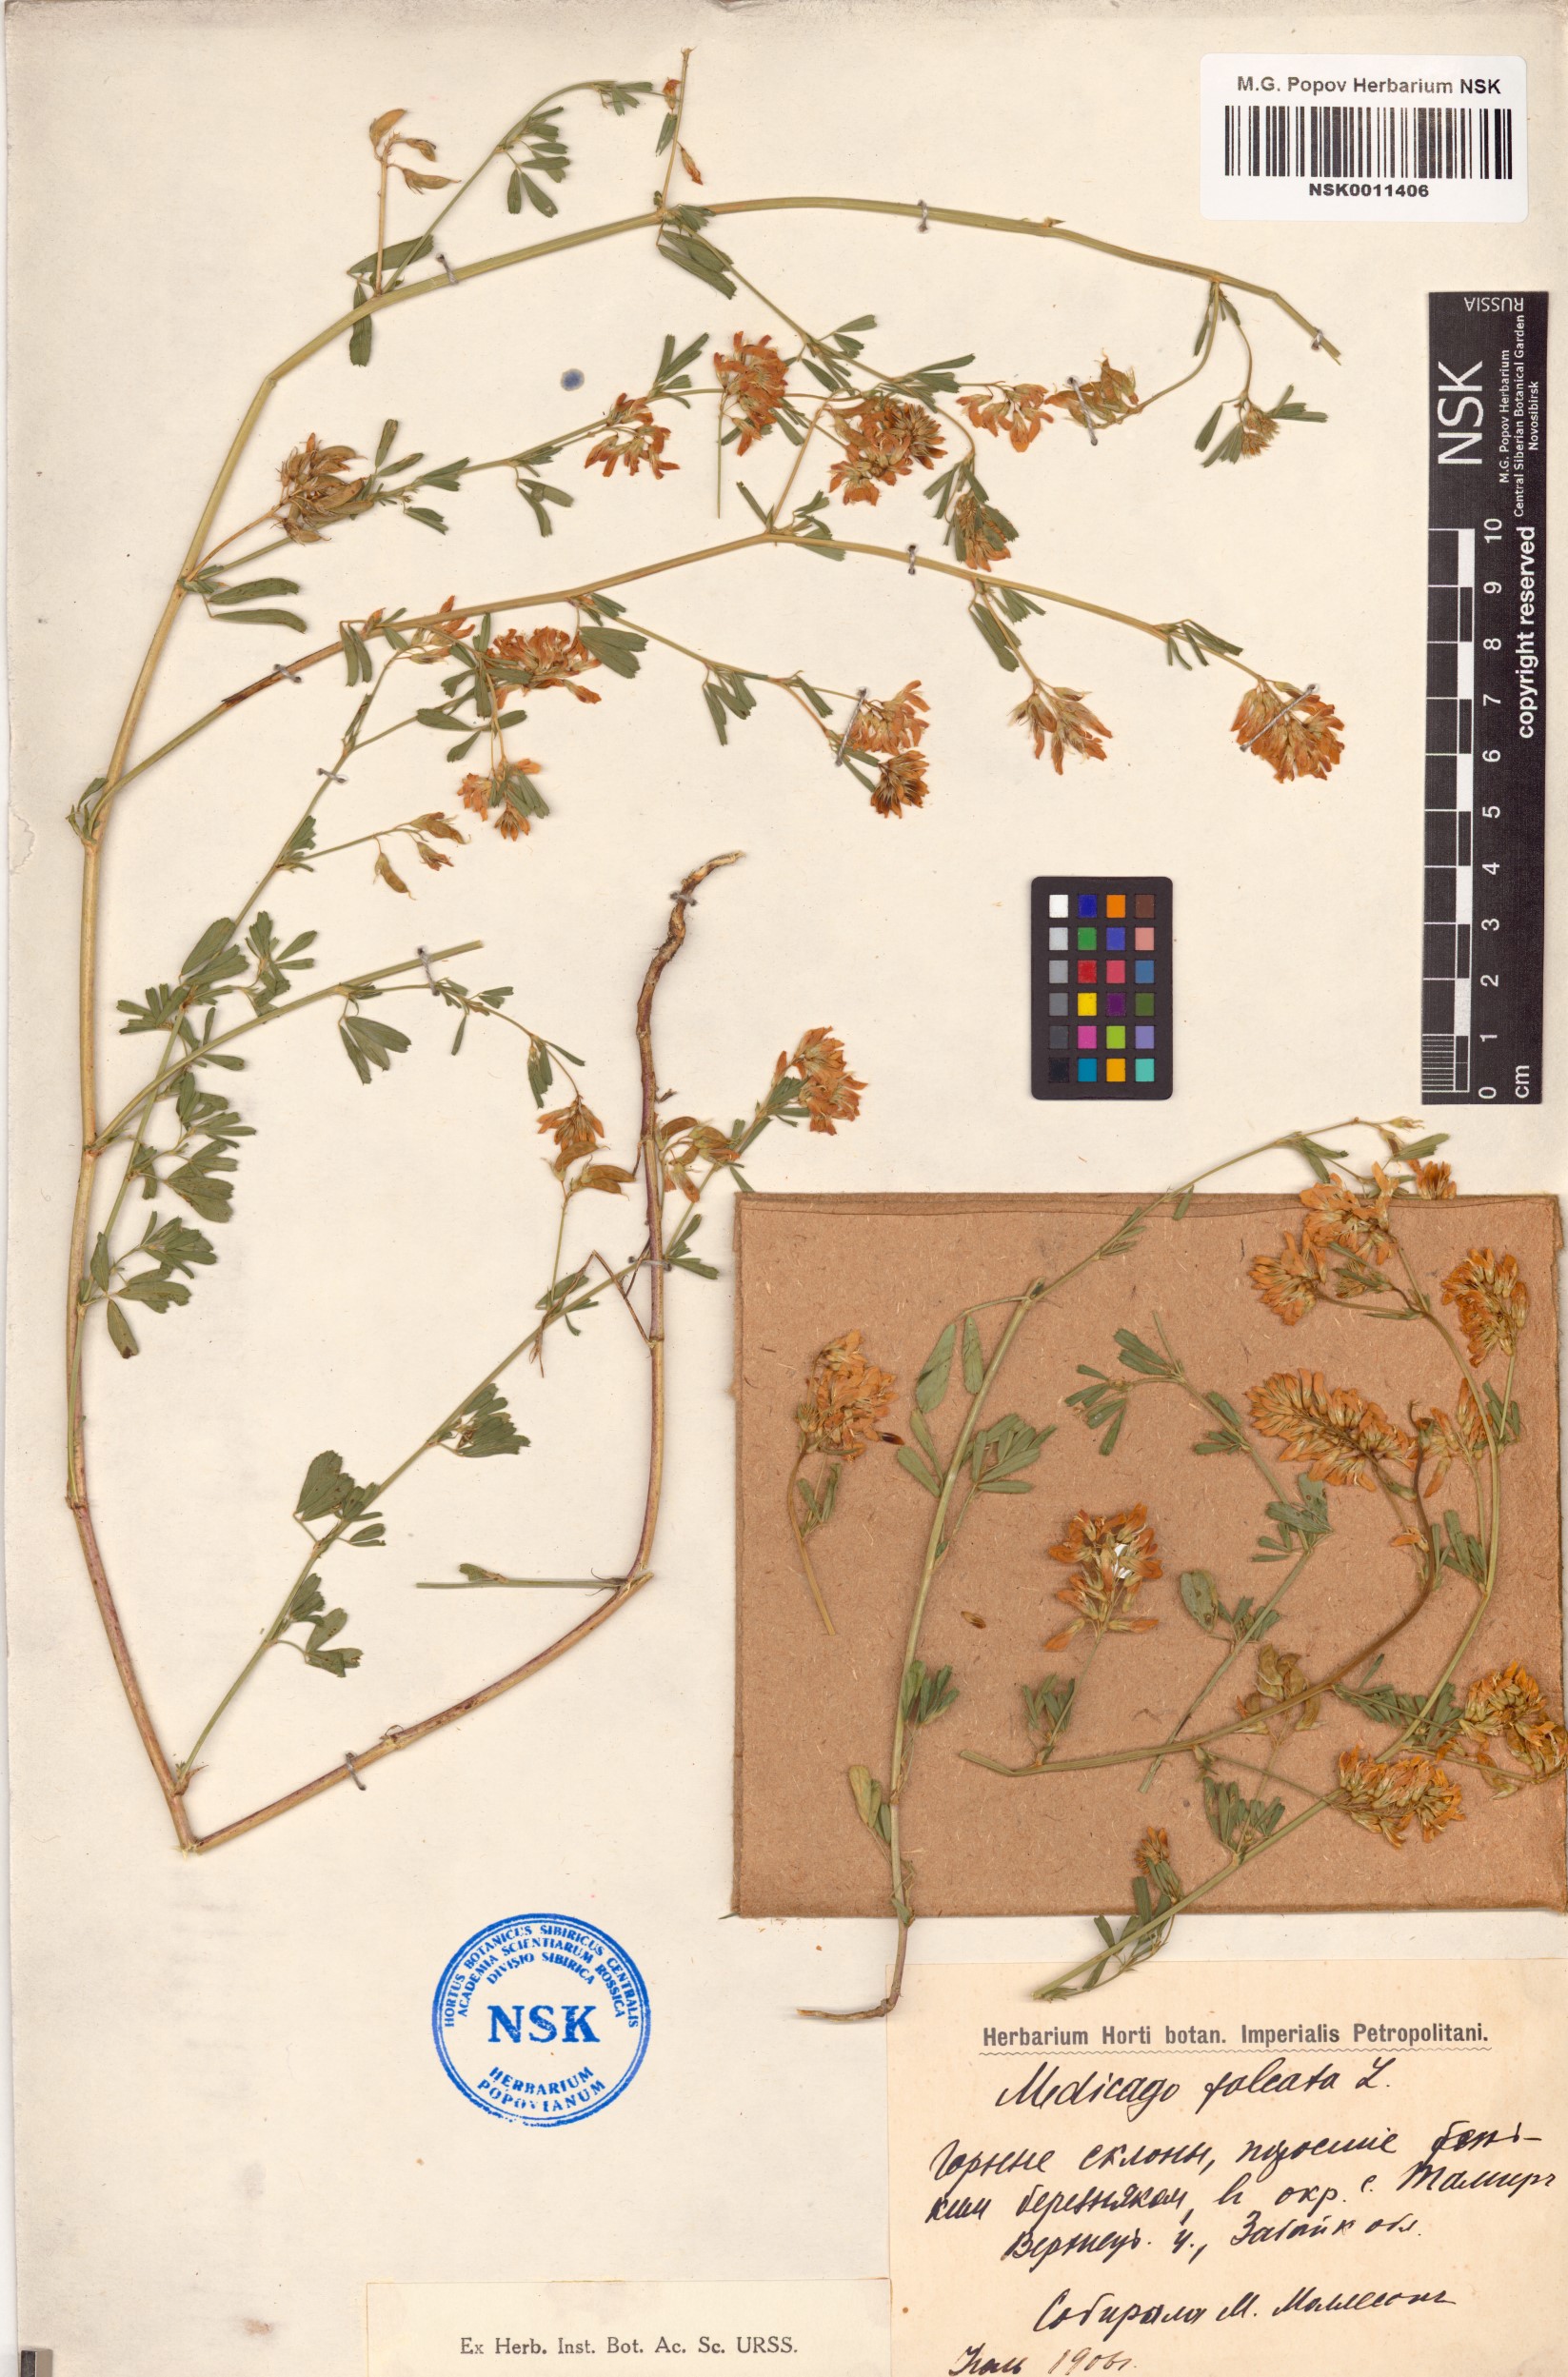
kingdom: Plantae
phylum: Tracheophyta
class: Magnoliopsida
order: Fabales
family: Fabaceae
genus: Medicago
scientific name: Medicago falcata
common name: Sickle medick
